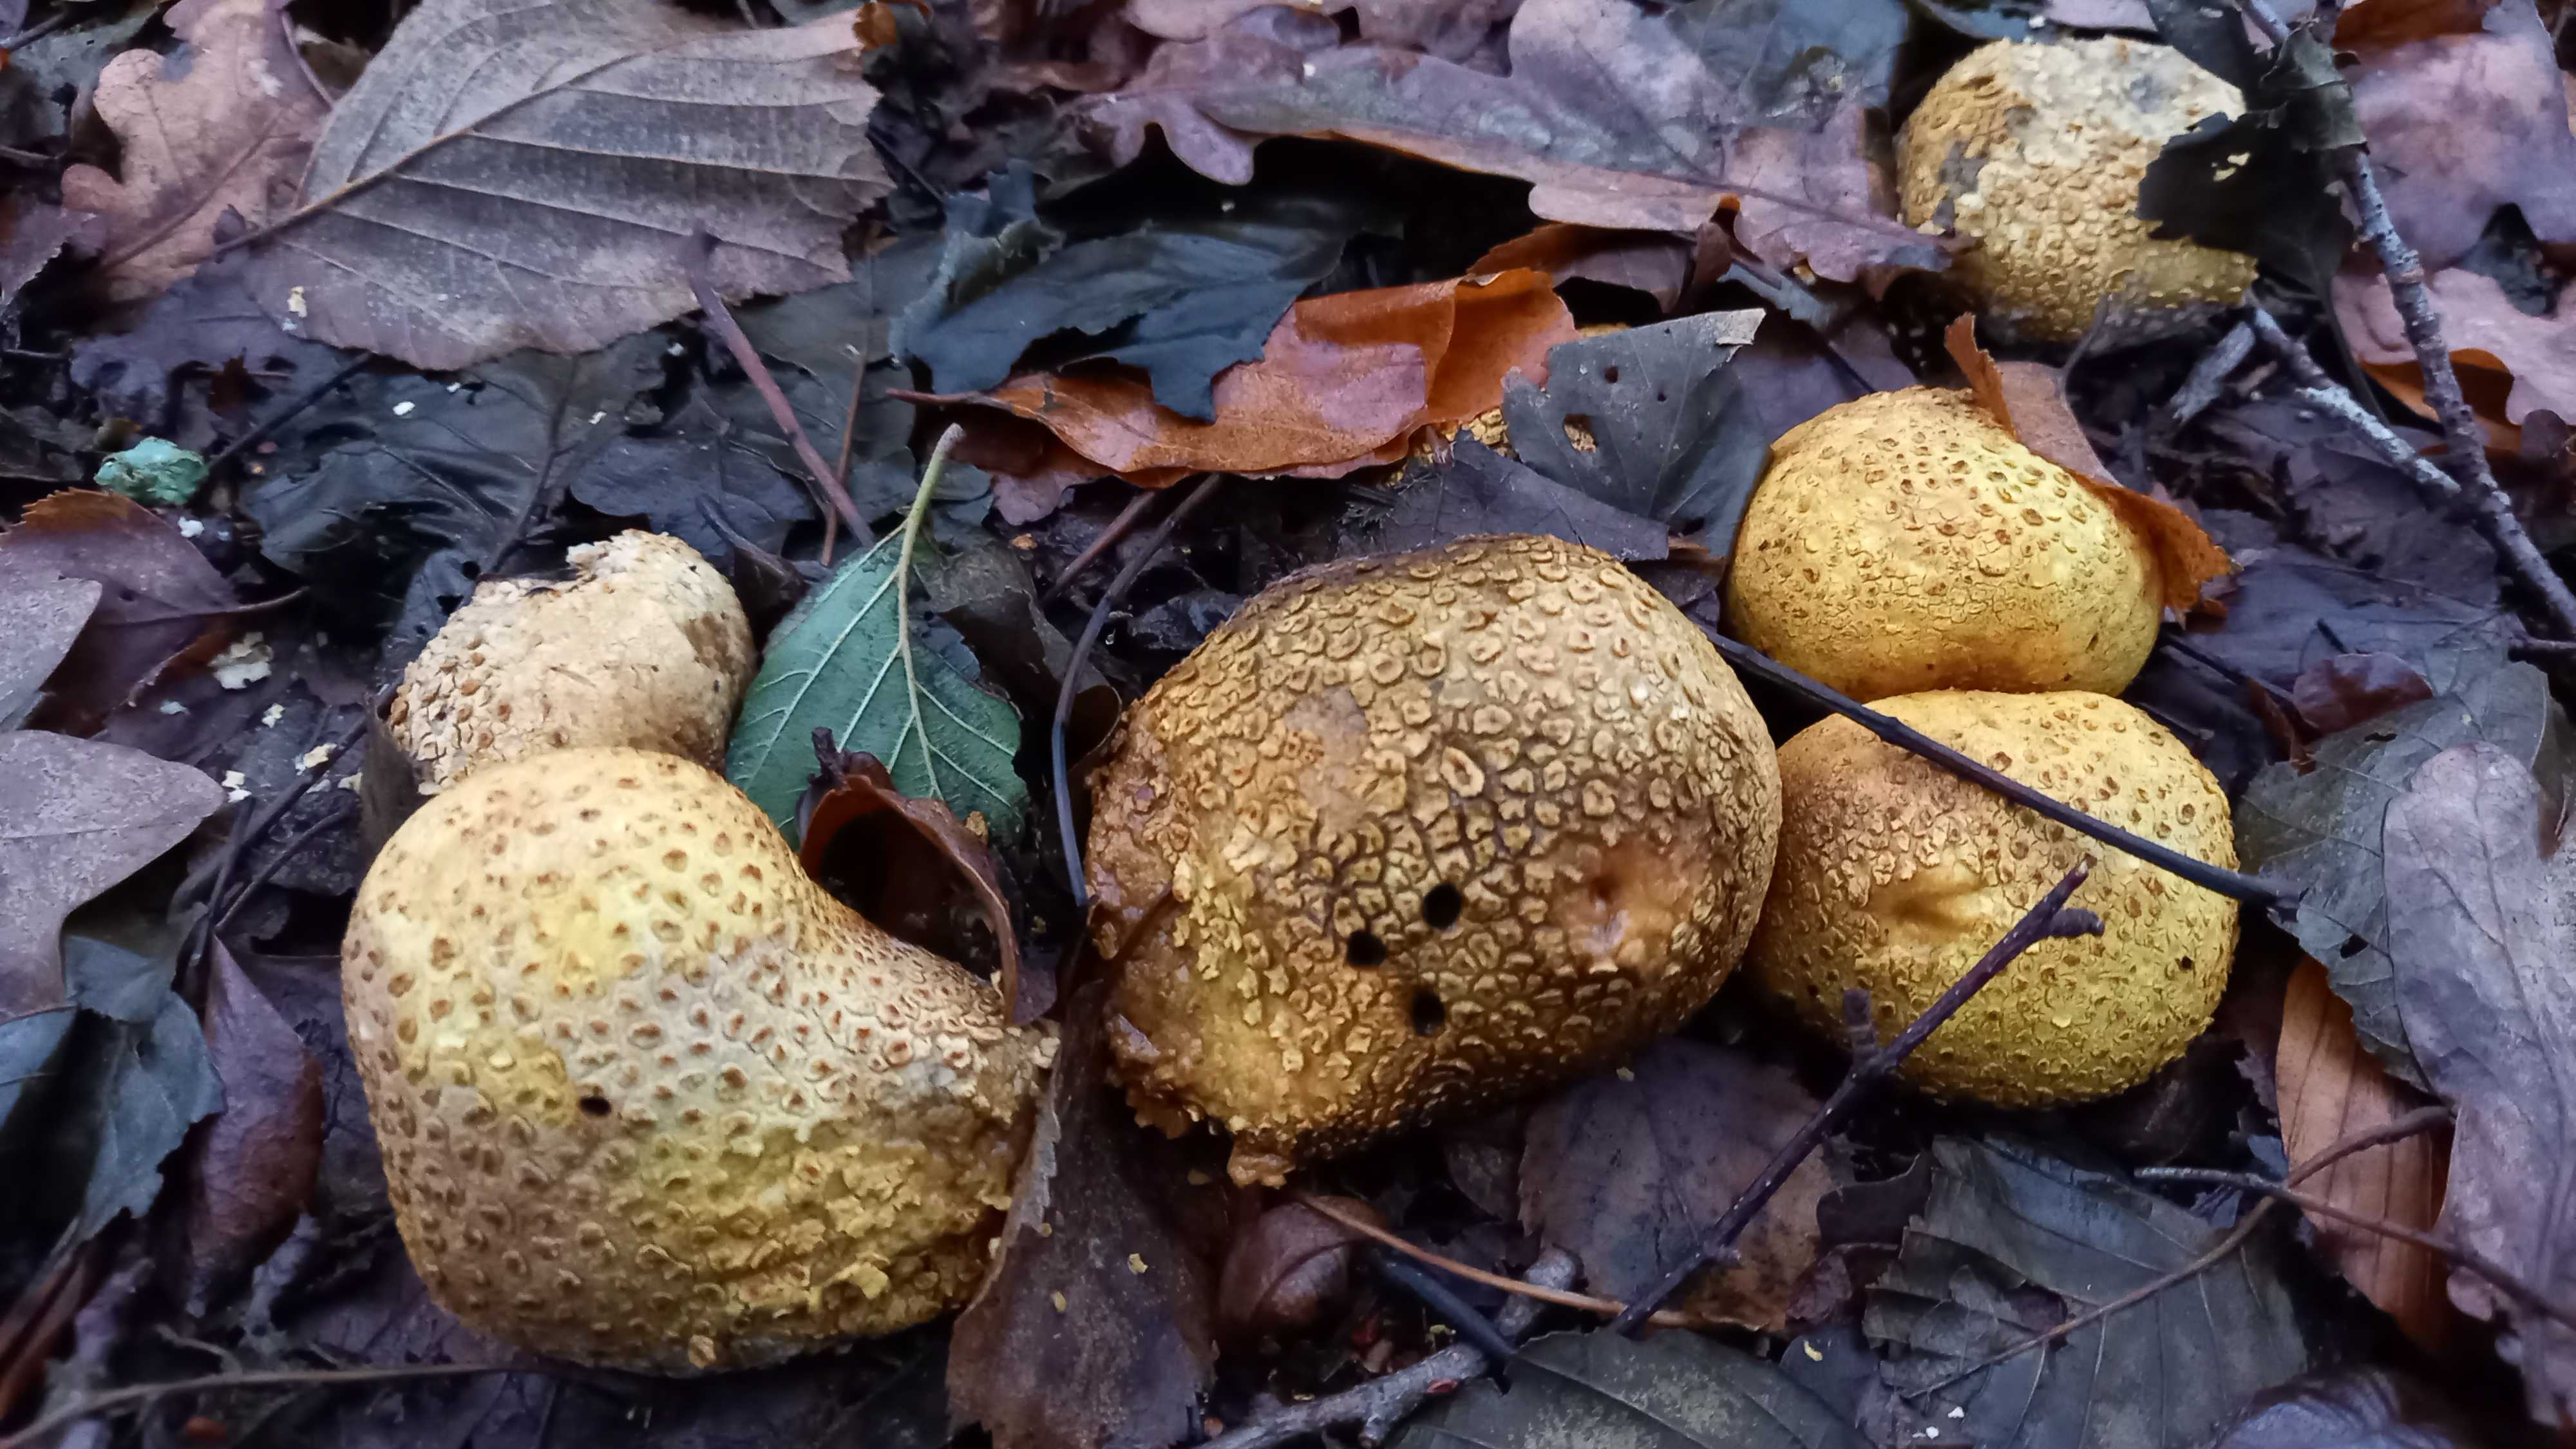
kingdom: Fungi
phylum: Basidiomycota
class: Agaricomycetes
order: Boletales
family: Sclerodermataceae
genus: Scleroderma
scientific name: Scleroderma citrinum
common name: almindelig bruskbold
